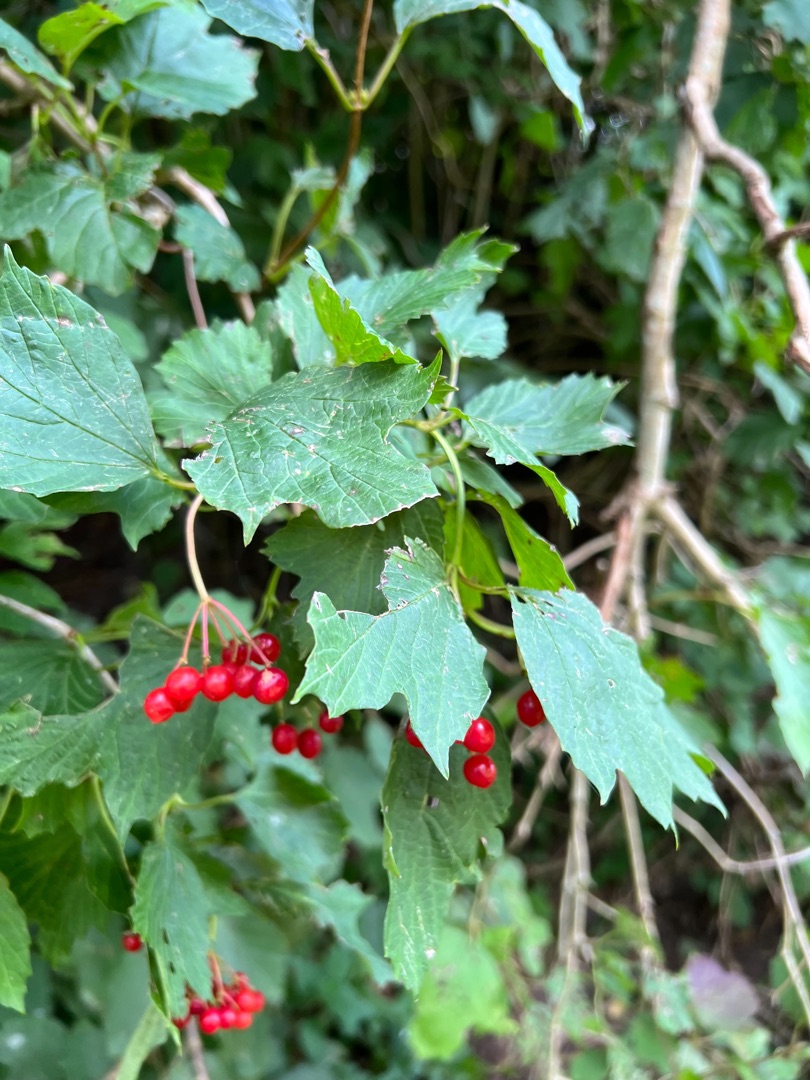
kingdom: Plantae
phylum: Tracheophyta
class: Magnoliopsida
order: Dipsacales
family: Viburnaceae
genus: Viburnum
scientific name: Viburnum opulus
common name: Kvalkved
